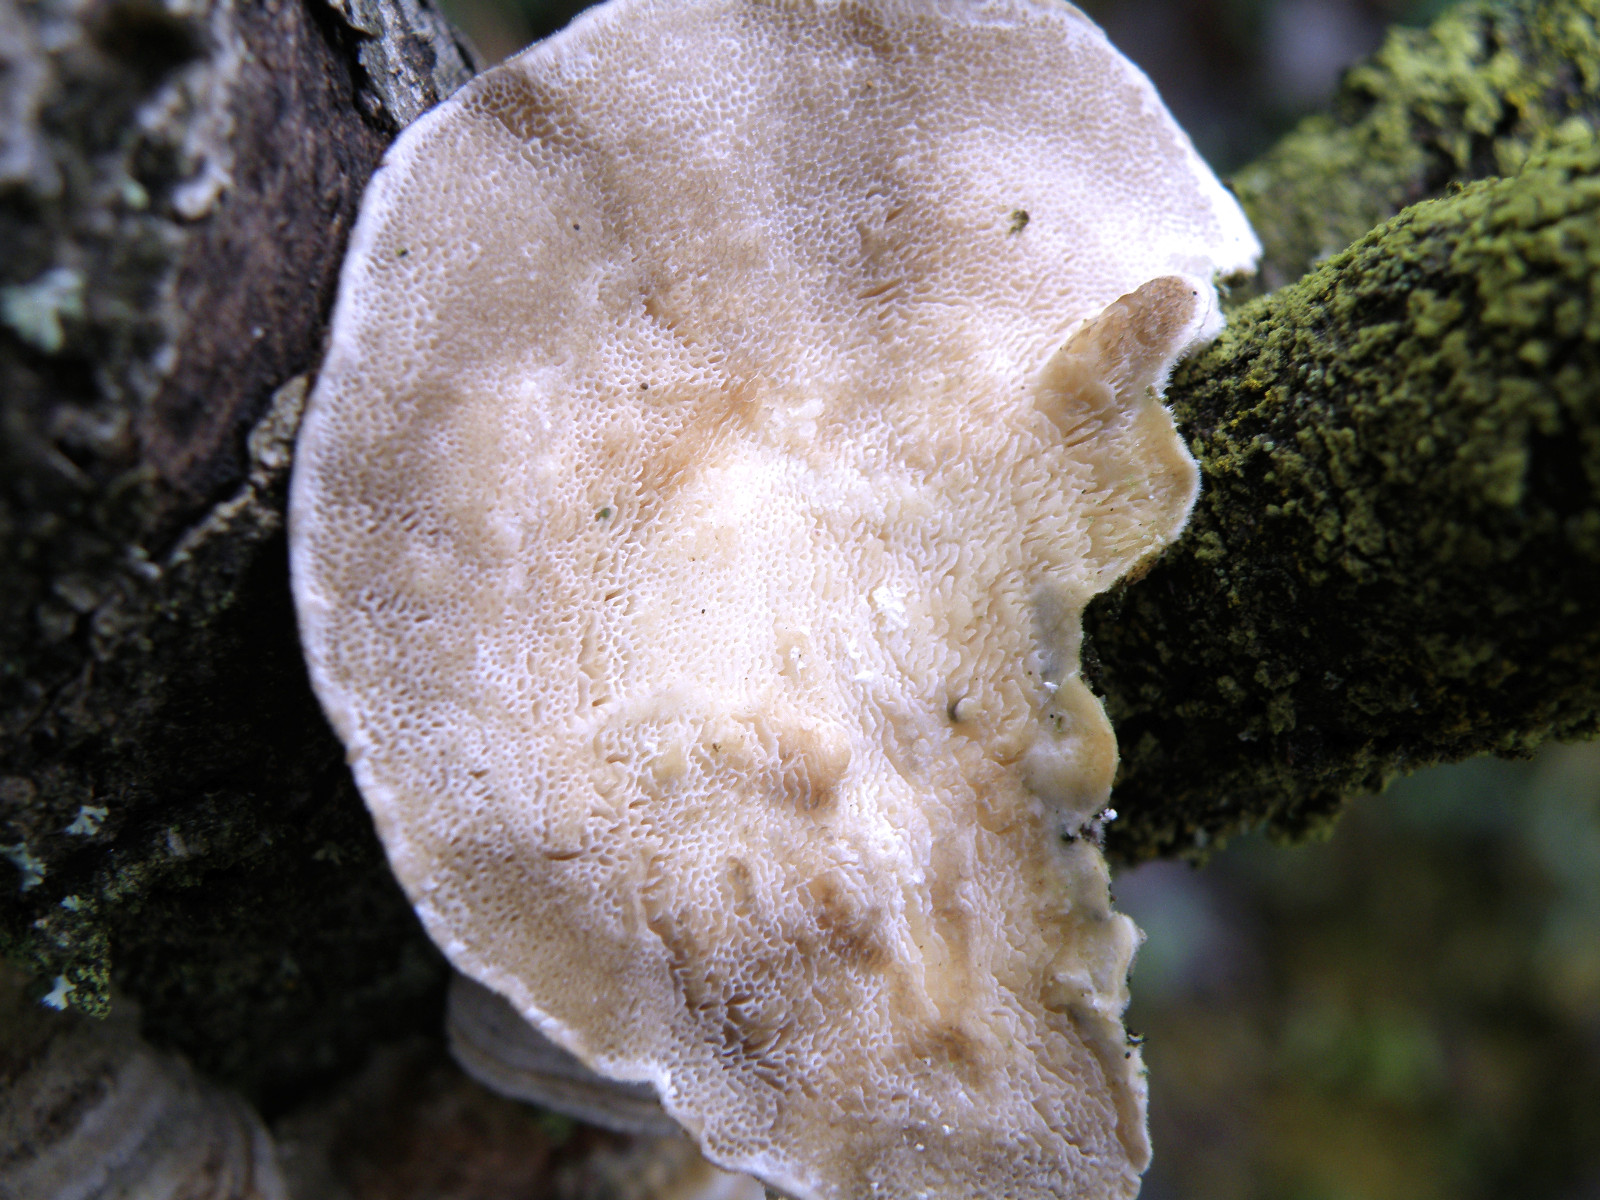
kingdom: Fungi
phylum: Basidiomycota
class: Agaricomycetes
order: Polyporales
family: Polyporaceae
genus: Trametes
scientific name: Trametes
